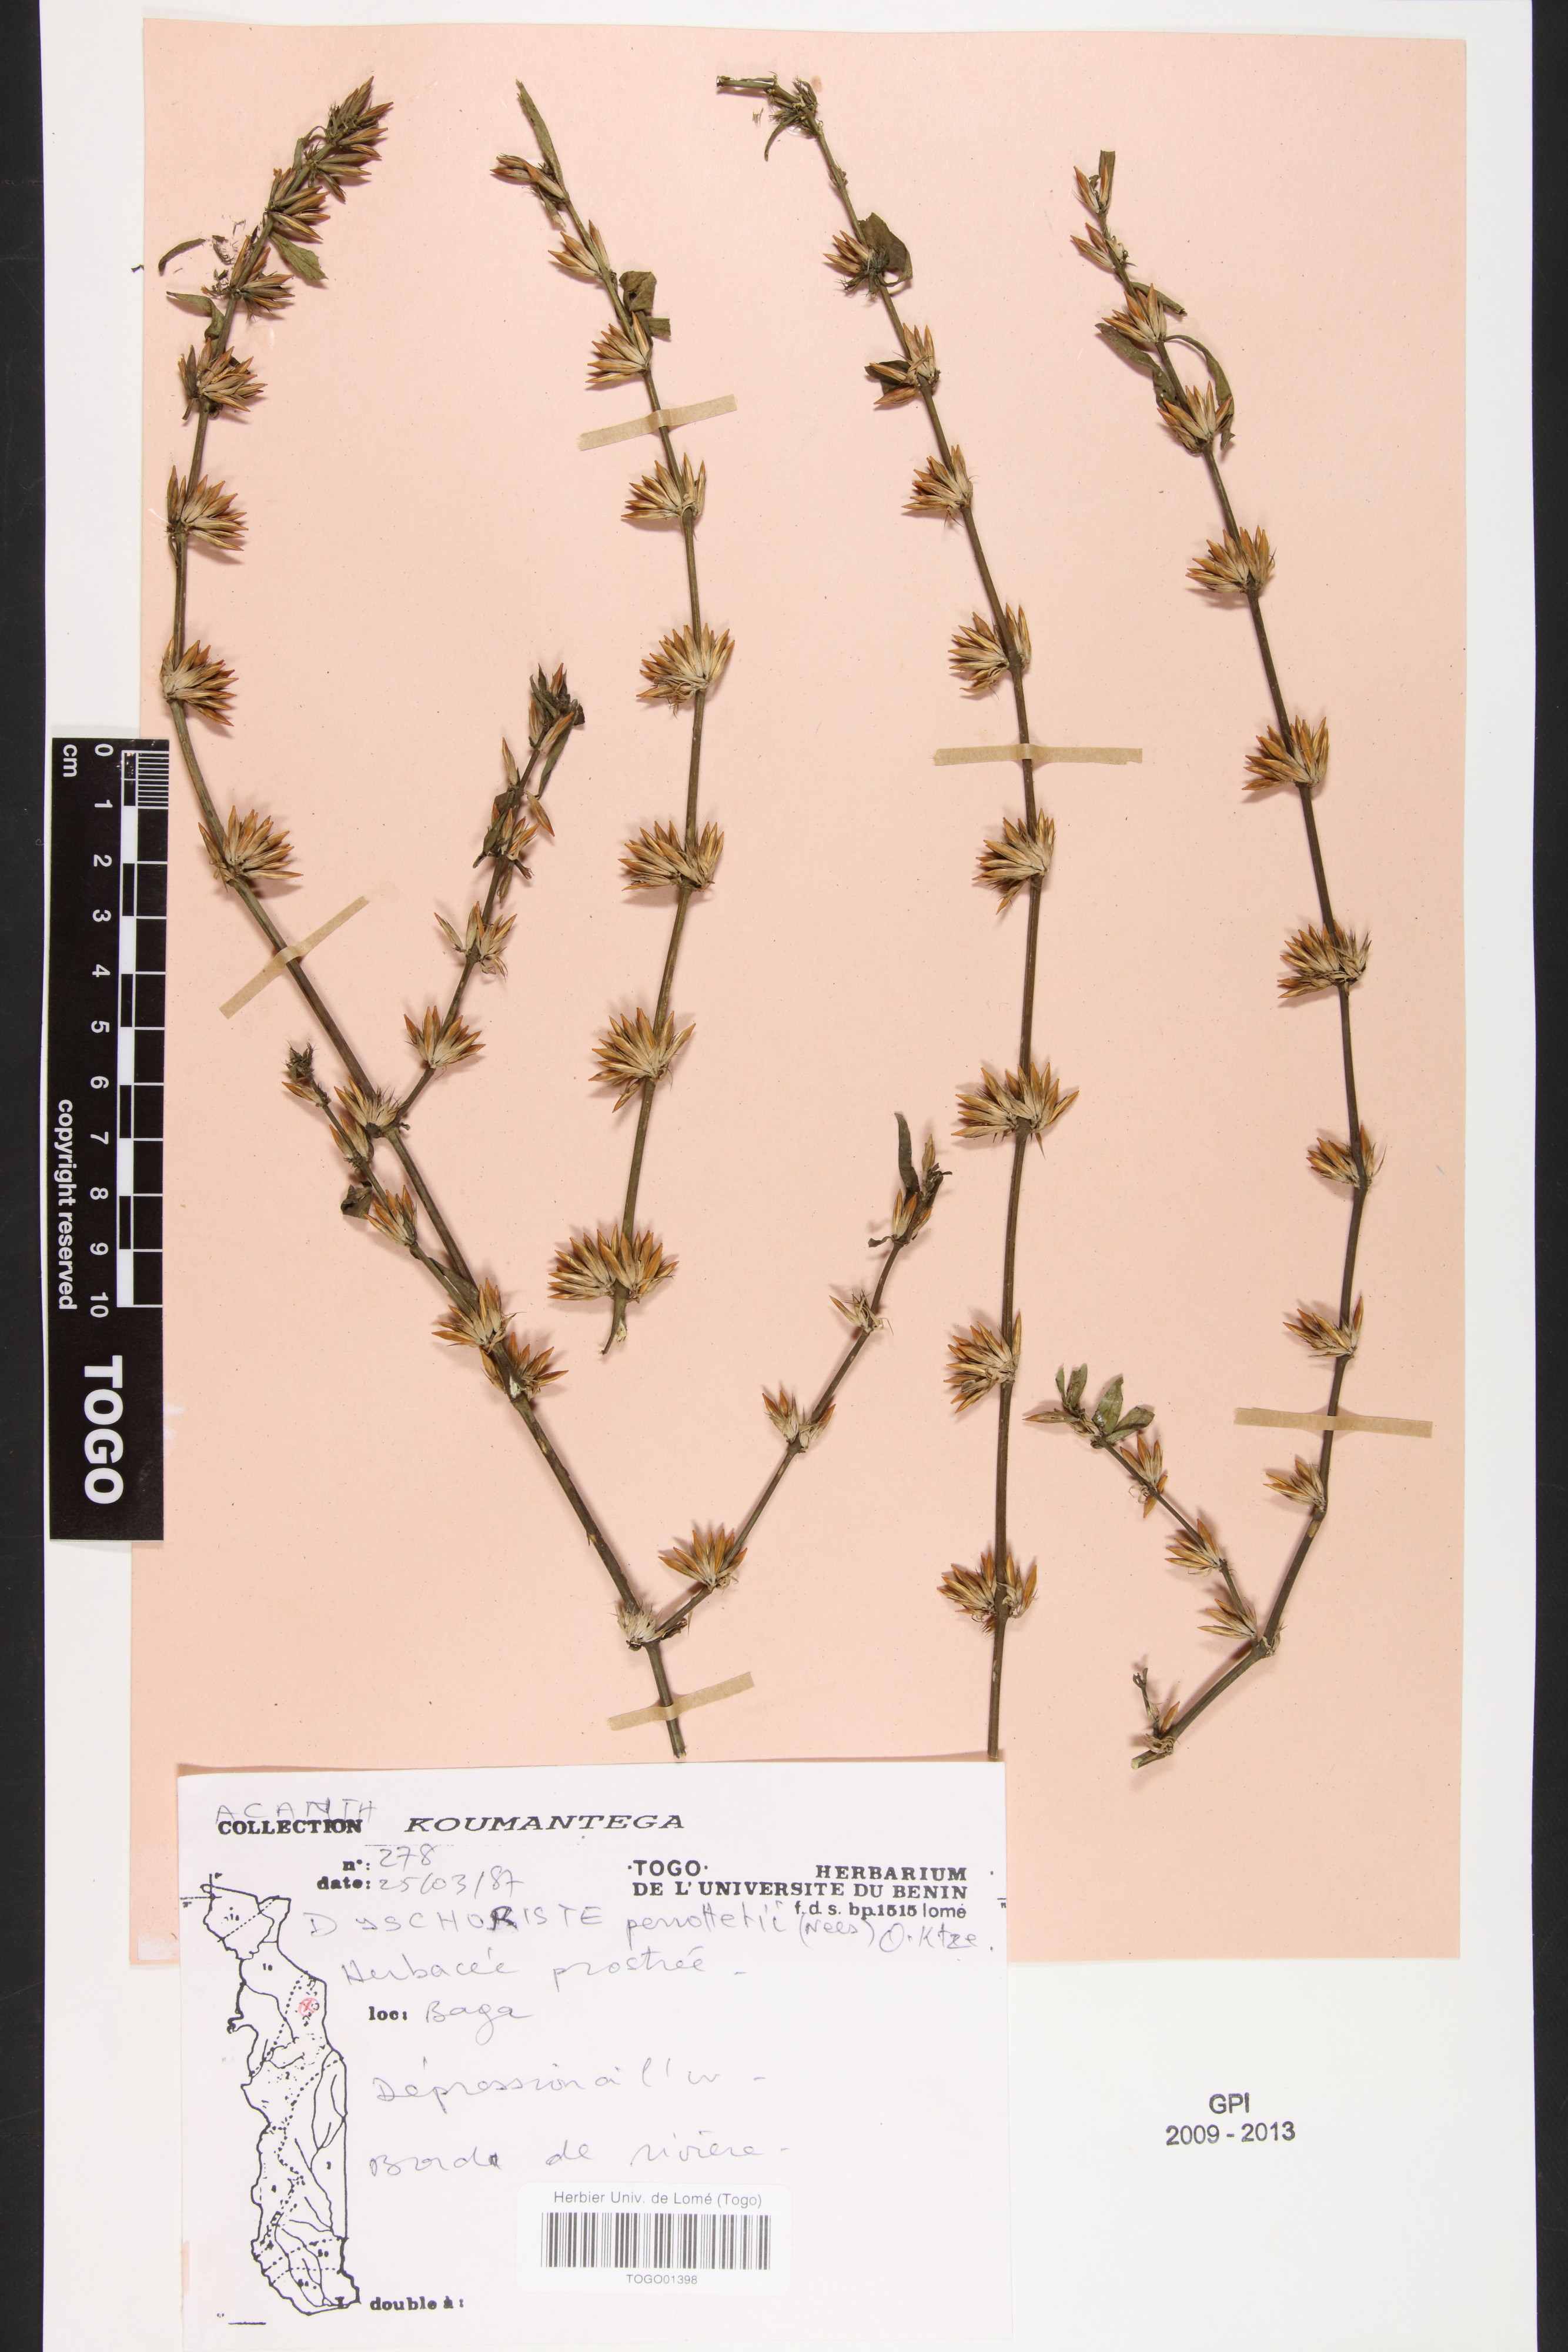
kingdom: Plantae
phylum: Tracheophyta
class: Magnoliopsida
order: Lamiales
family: Acanthaceae
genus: Dyschoriste
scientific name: Dyschoriste nagchana
